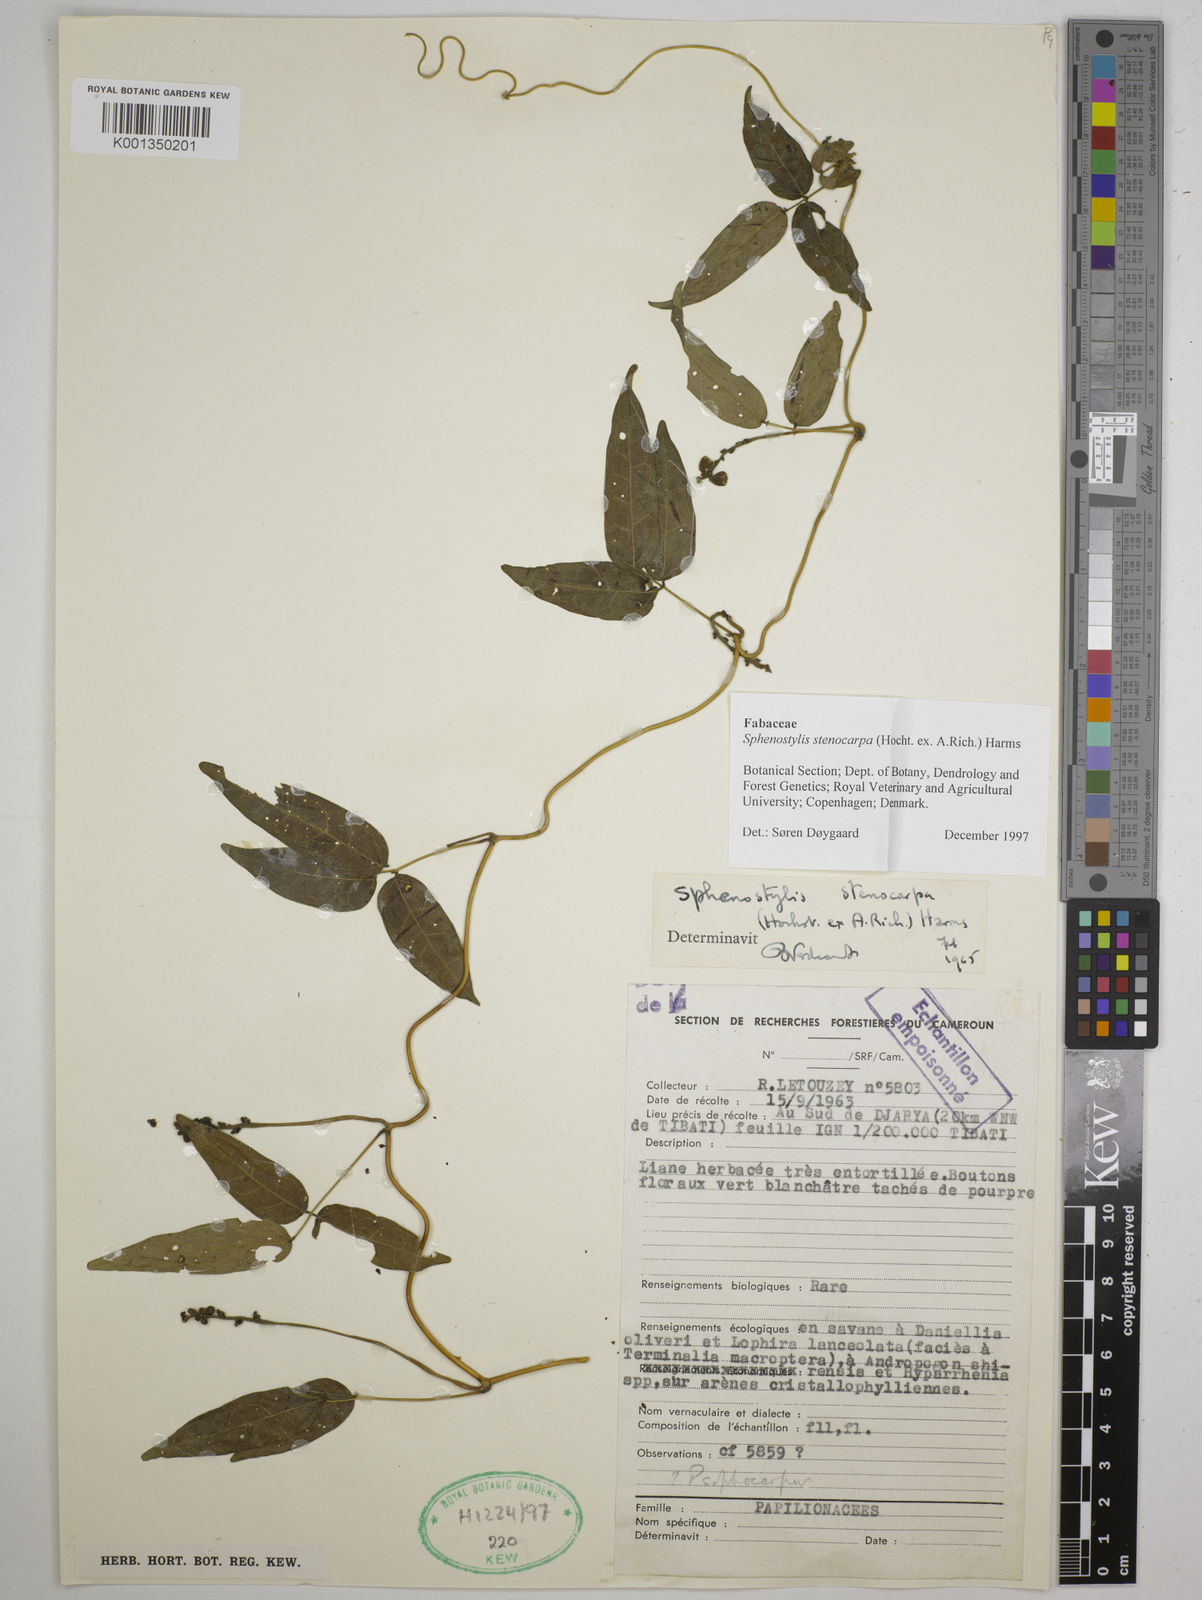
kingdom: Plantae
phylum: Tracheophyta
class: Magnoliopsida
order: Fabales
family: Fabaceae
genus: Sphenostylis
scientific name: Sphenostylis stenocarpa
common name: Yam-pea
